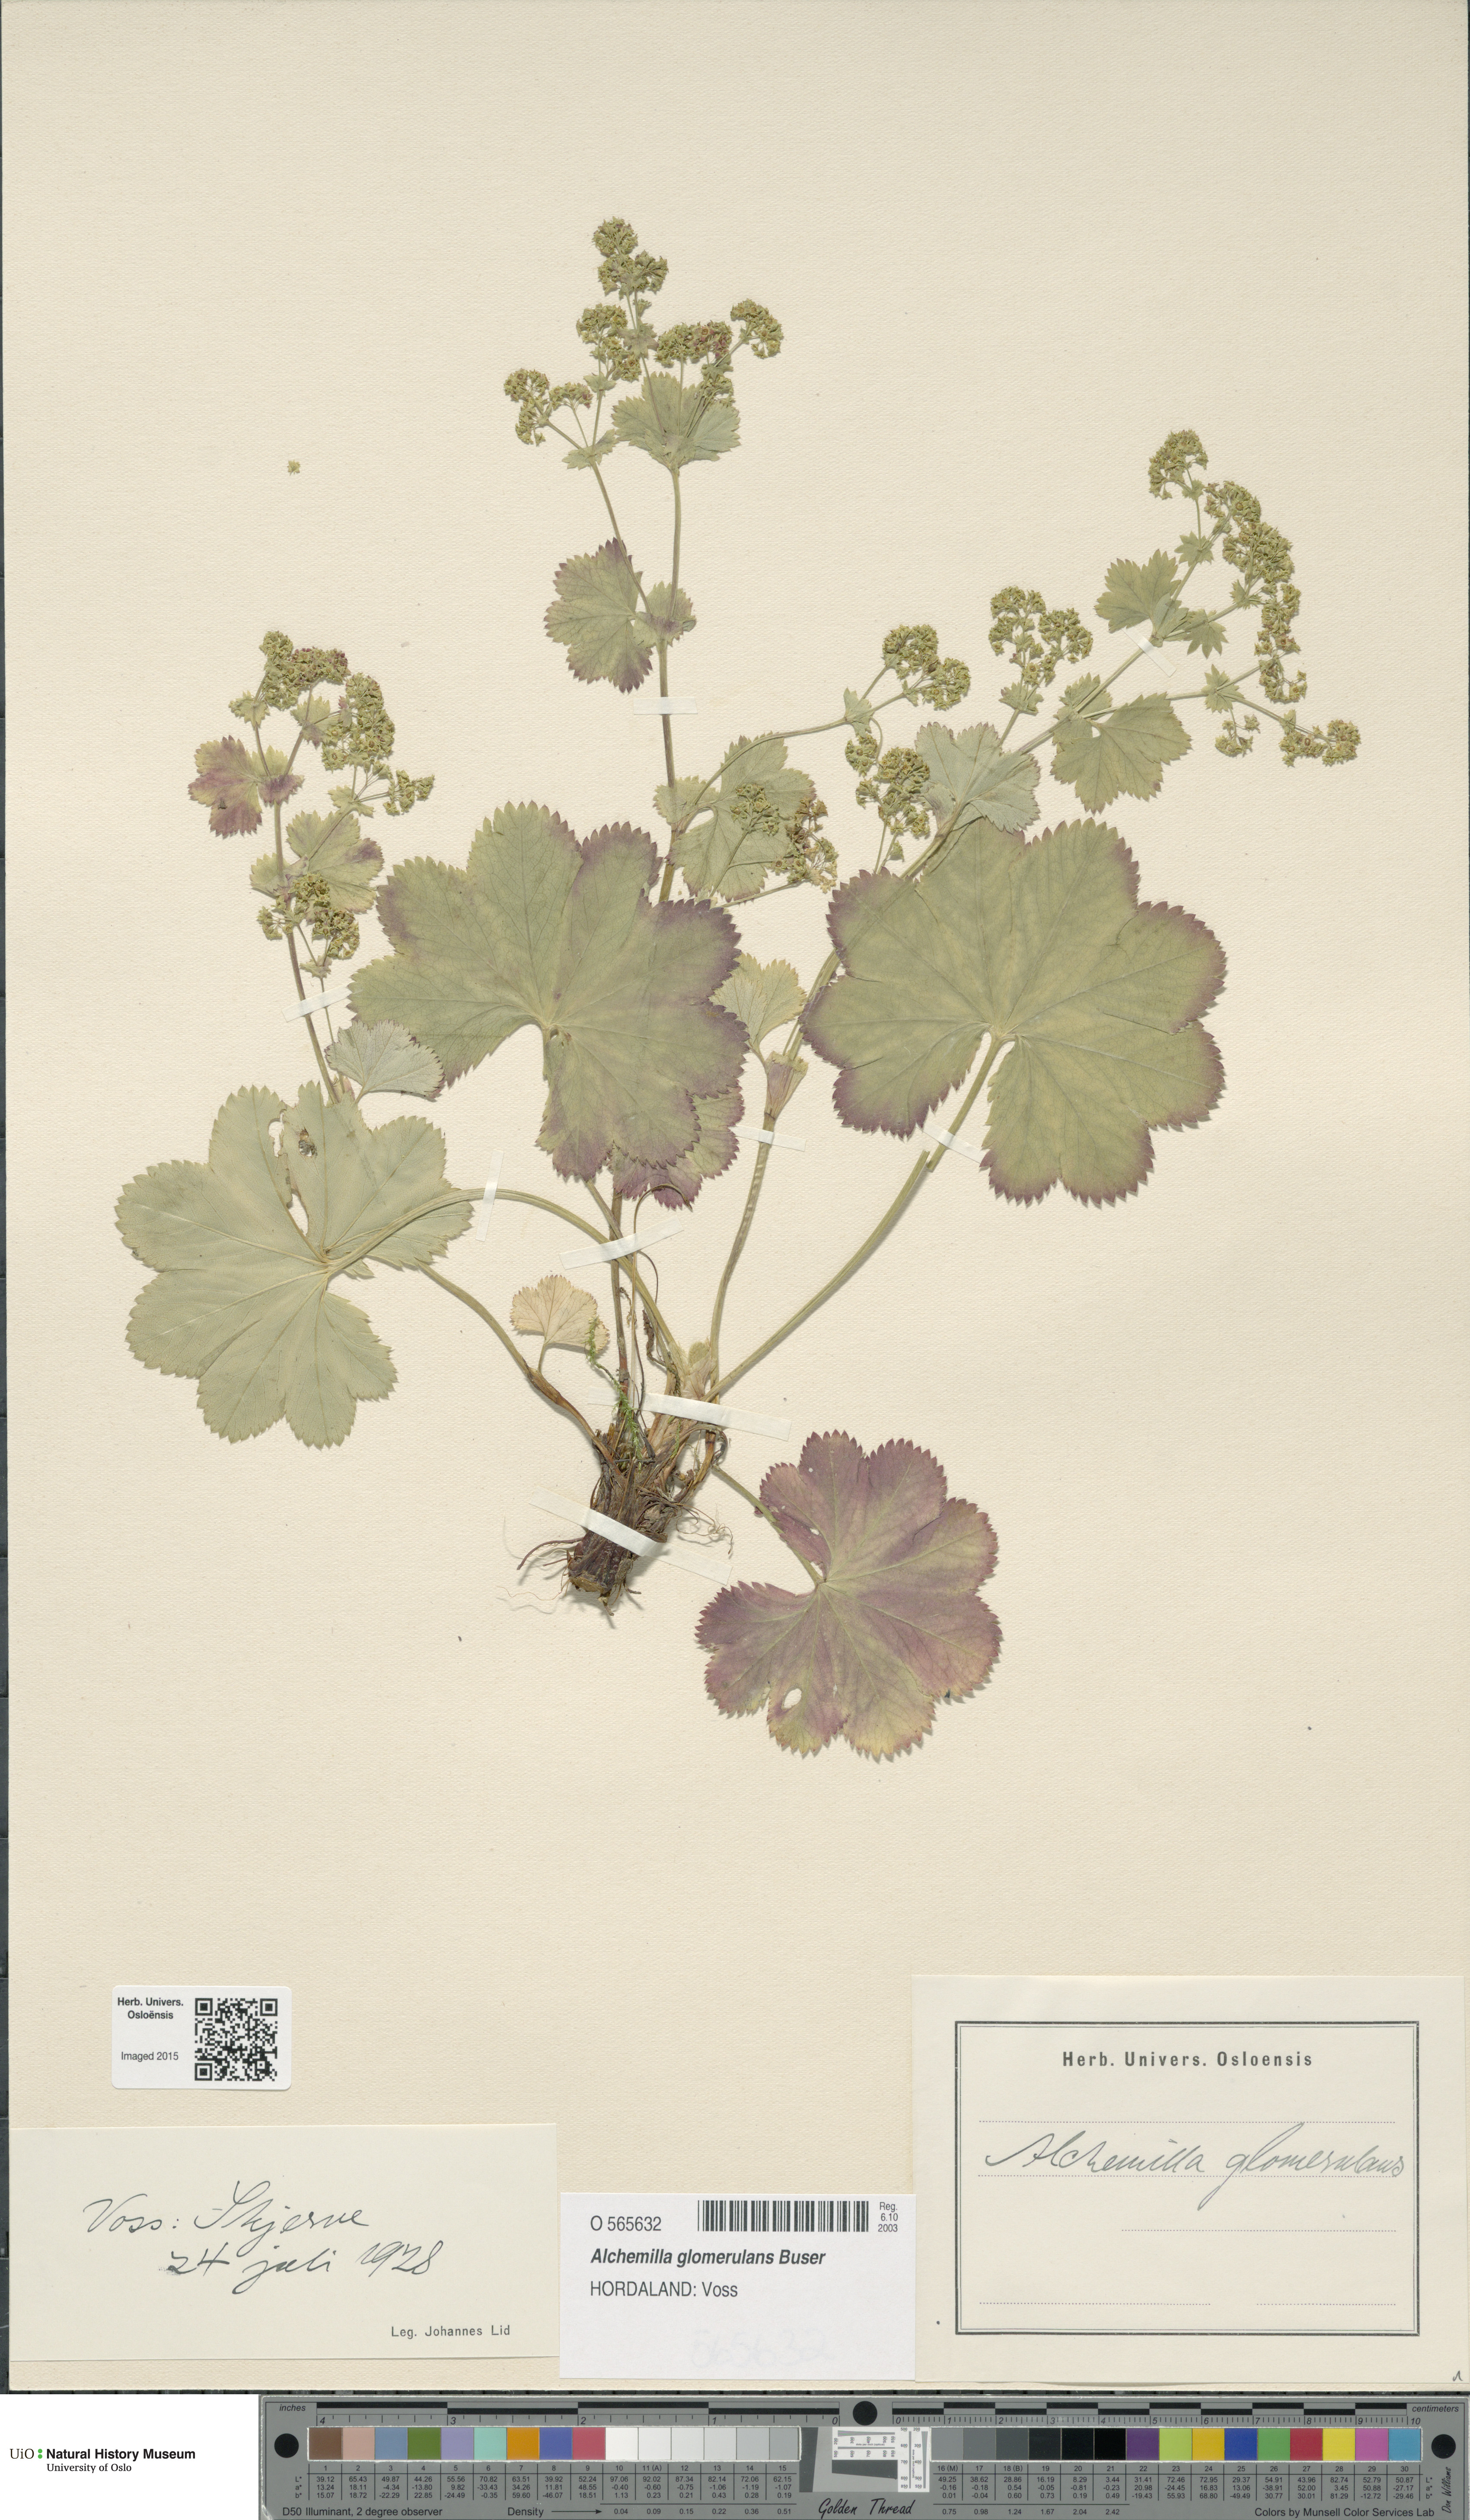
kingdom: Plantae
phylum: Tracheophyta
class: Magnoliopsida
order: Rosales
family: Rosaceae
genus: Alchemilla
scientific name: Alchemilla glomerulans
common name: Clustered lady's mantle
